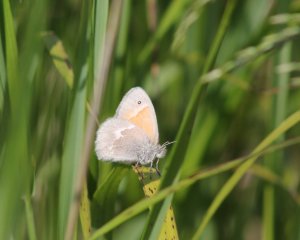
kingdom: Animalia
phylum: Arthropoda
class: Insecta
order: Lepidoptera
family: Nymphalidae
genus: Coenonympha
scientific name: Coenonympha tullia
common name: Large Heath
